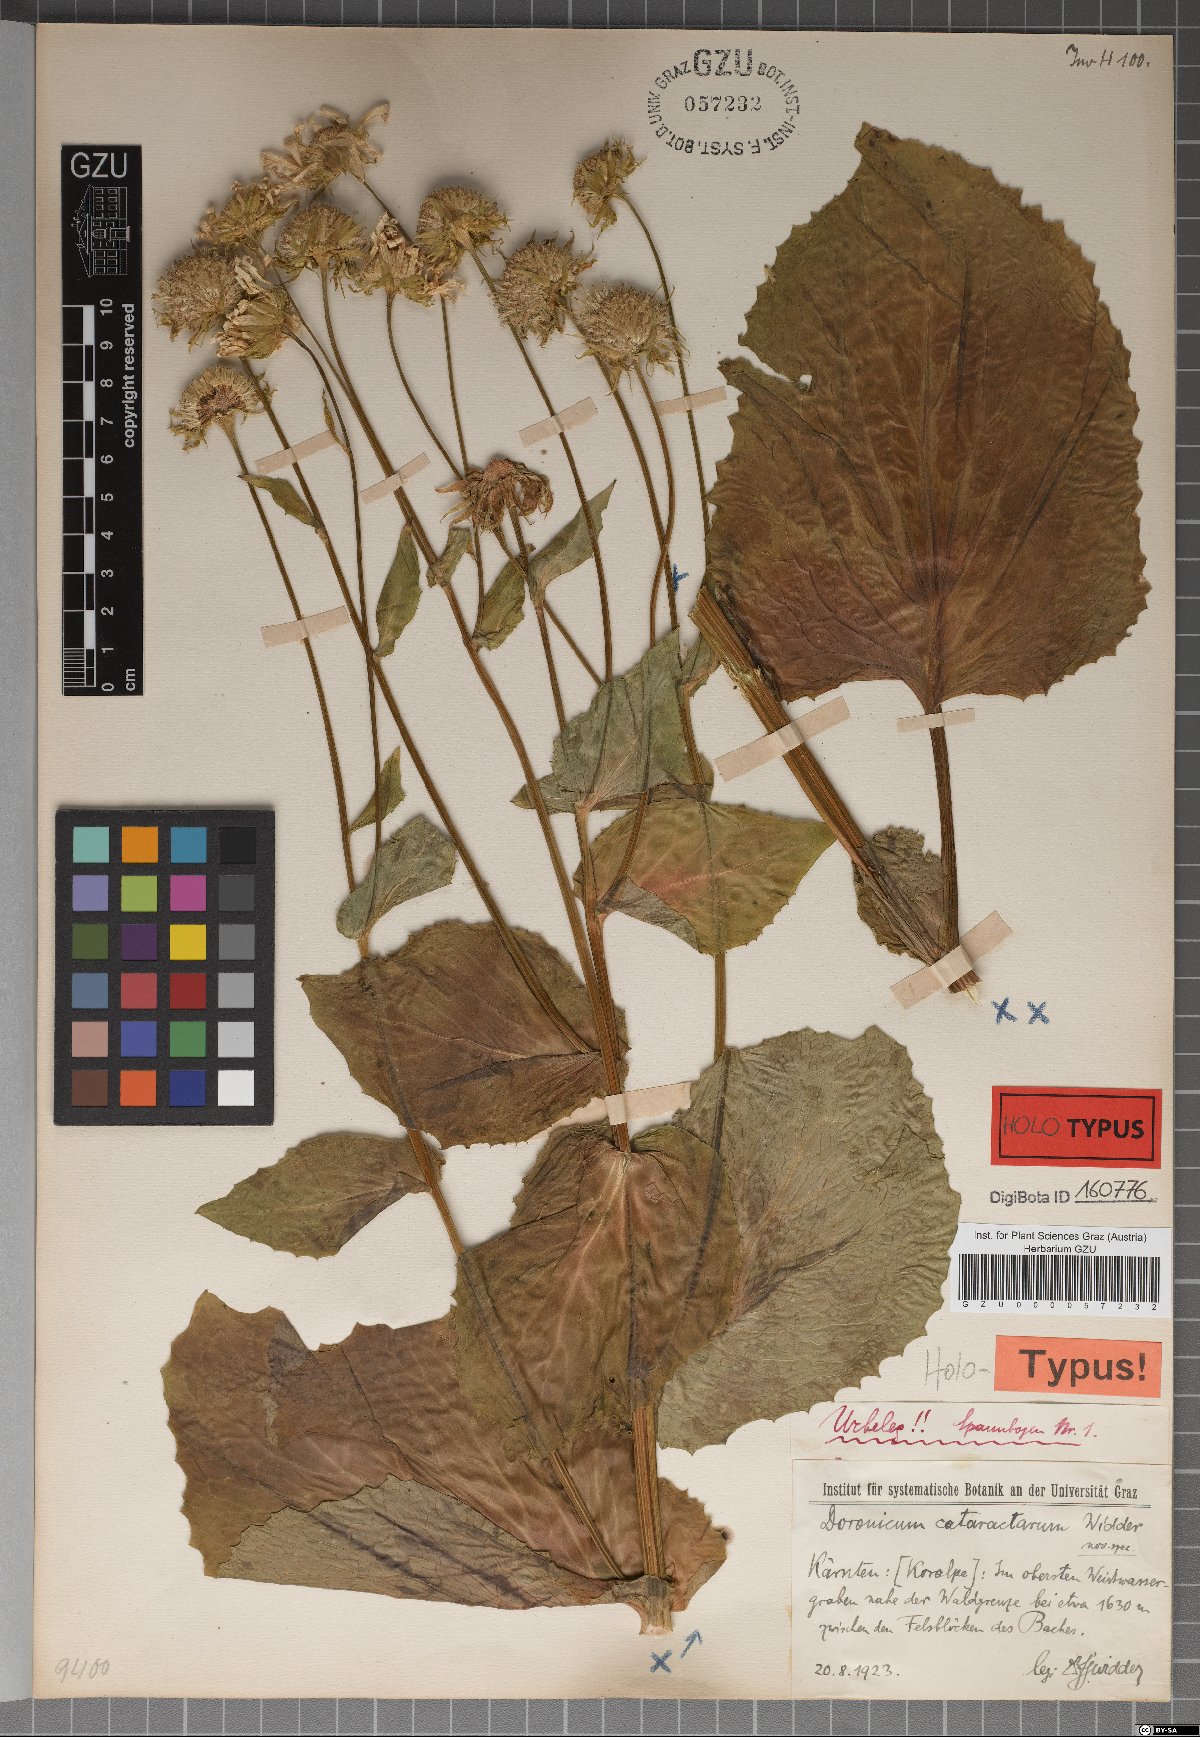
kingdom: Plantae
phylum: Tracheophyta
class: Magnoliopsida
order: Asterales
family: Asteraceae
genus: Doronicum
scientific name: Doronicum cataractarum
